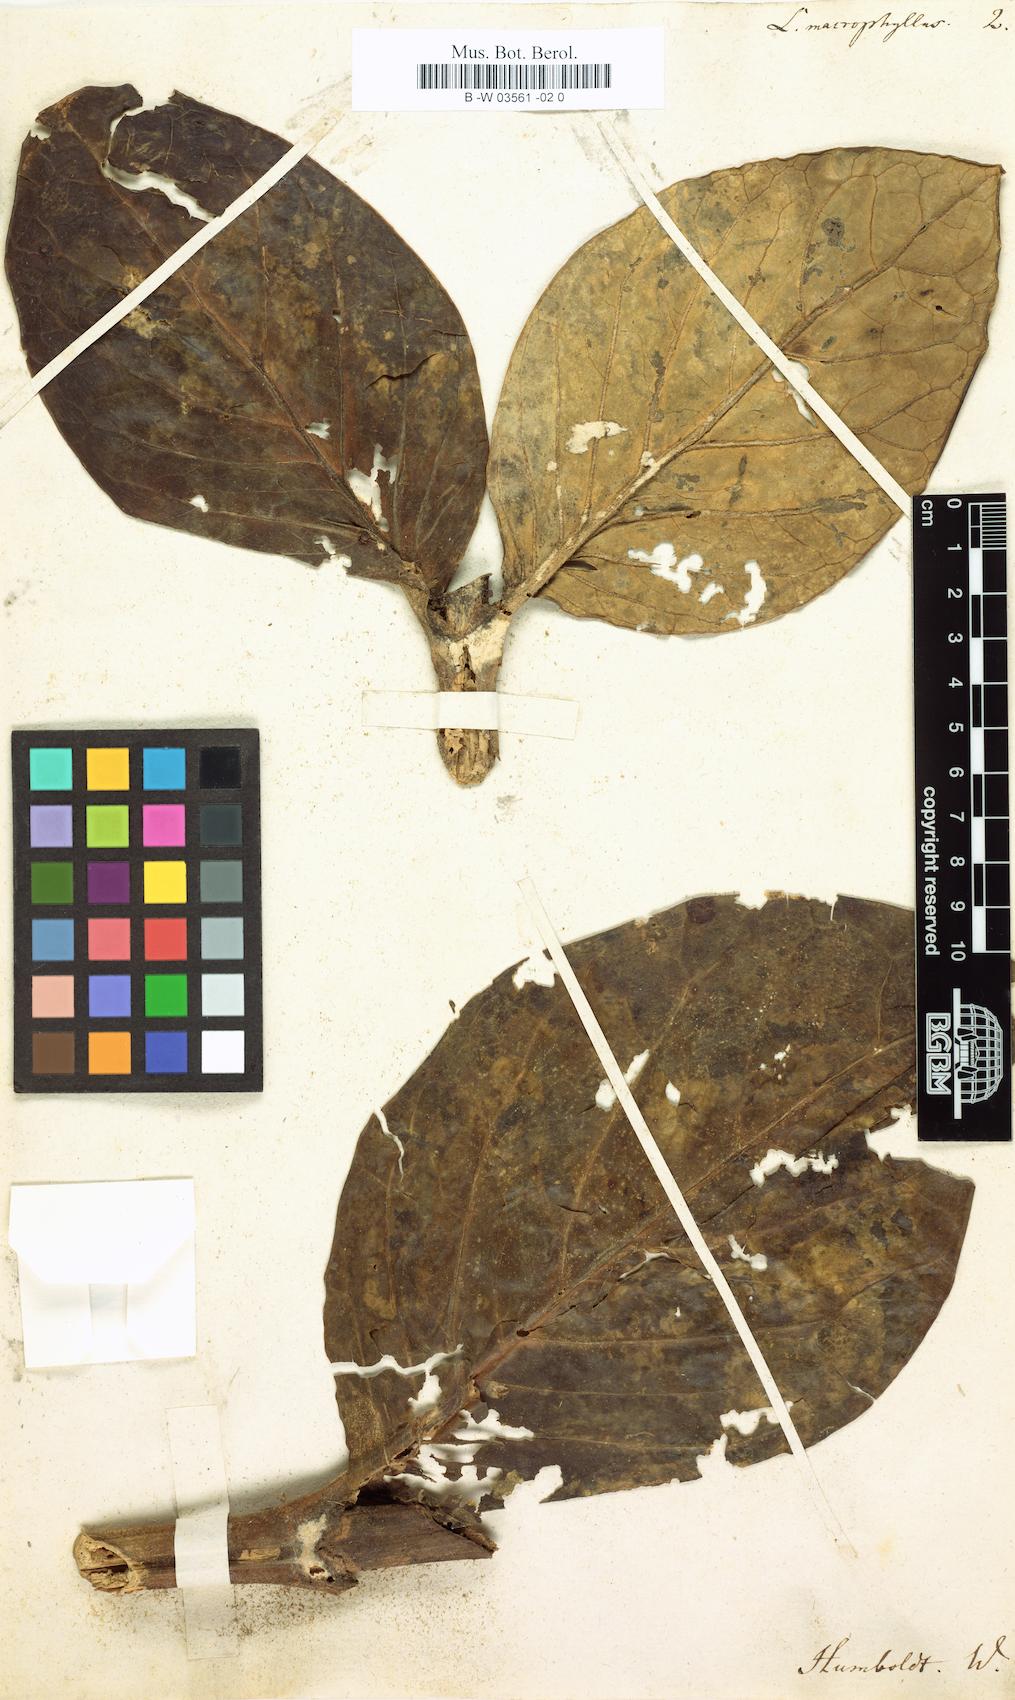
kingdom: Plantae
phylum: Tracheophyta
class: Magnoliopsida
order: Gentianales
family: Gentianaceae
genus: Macrocarpaea
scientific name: Macrocarpaea
